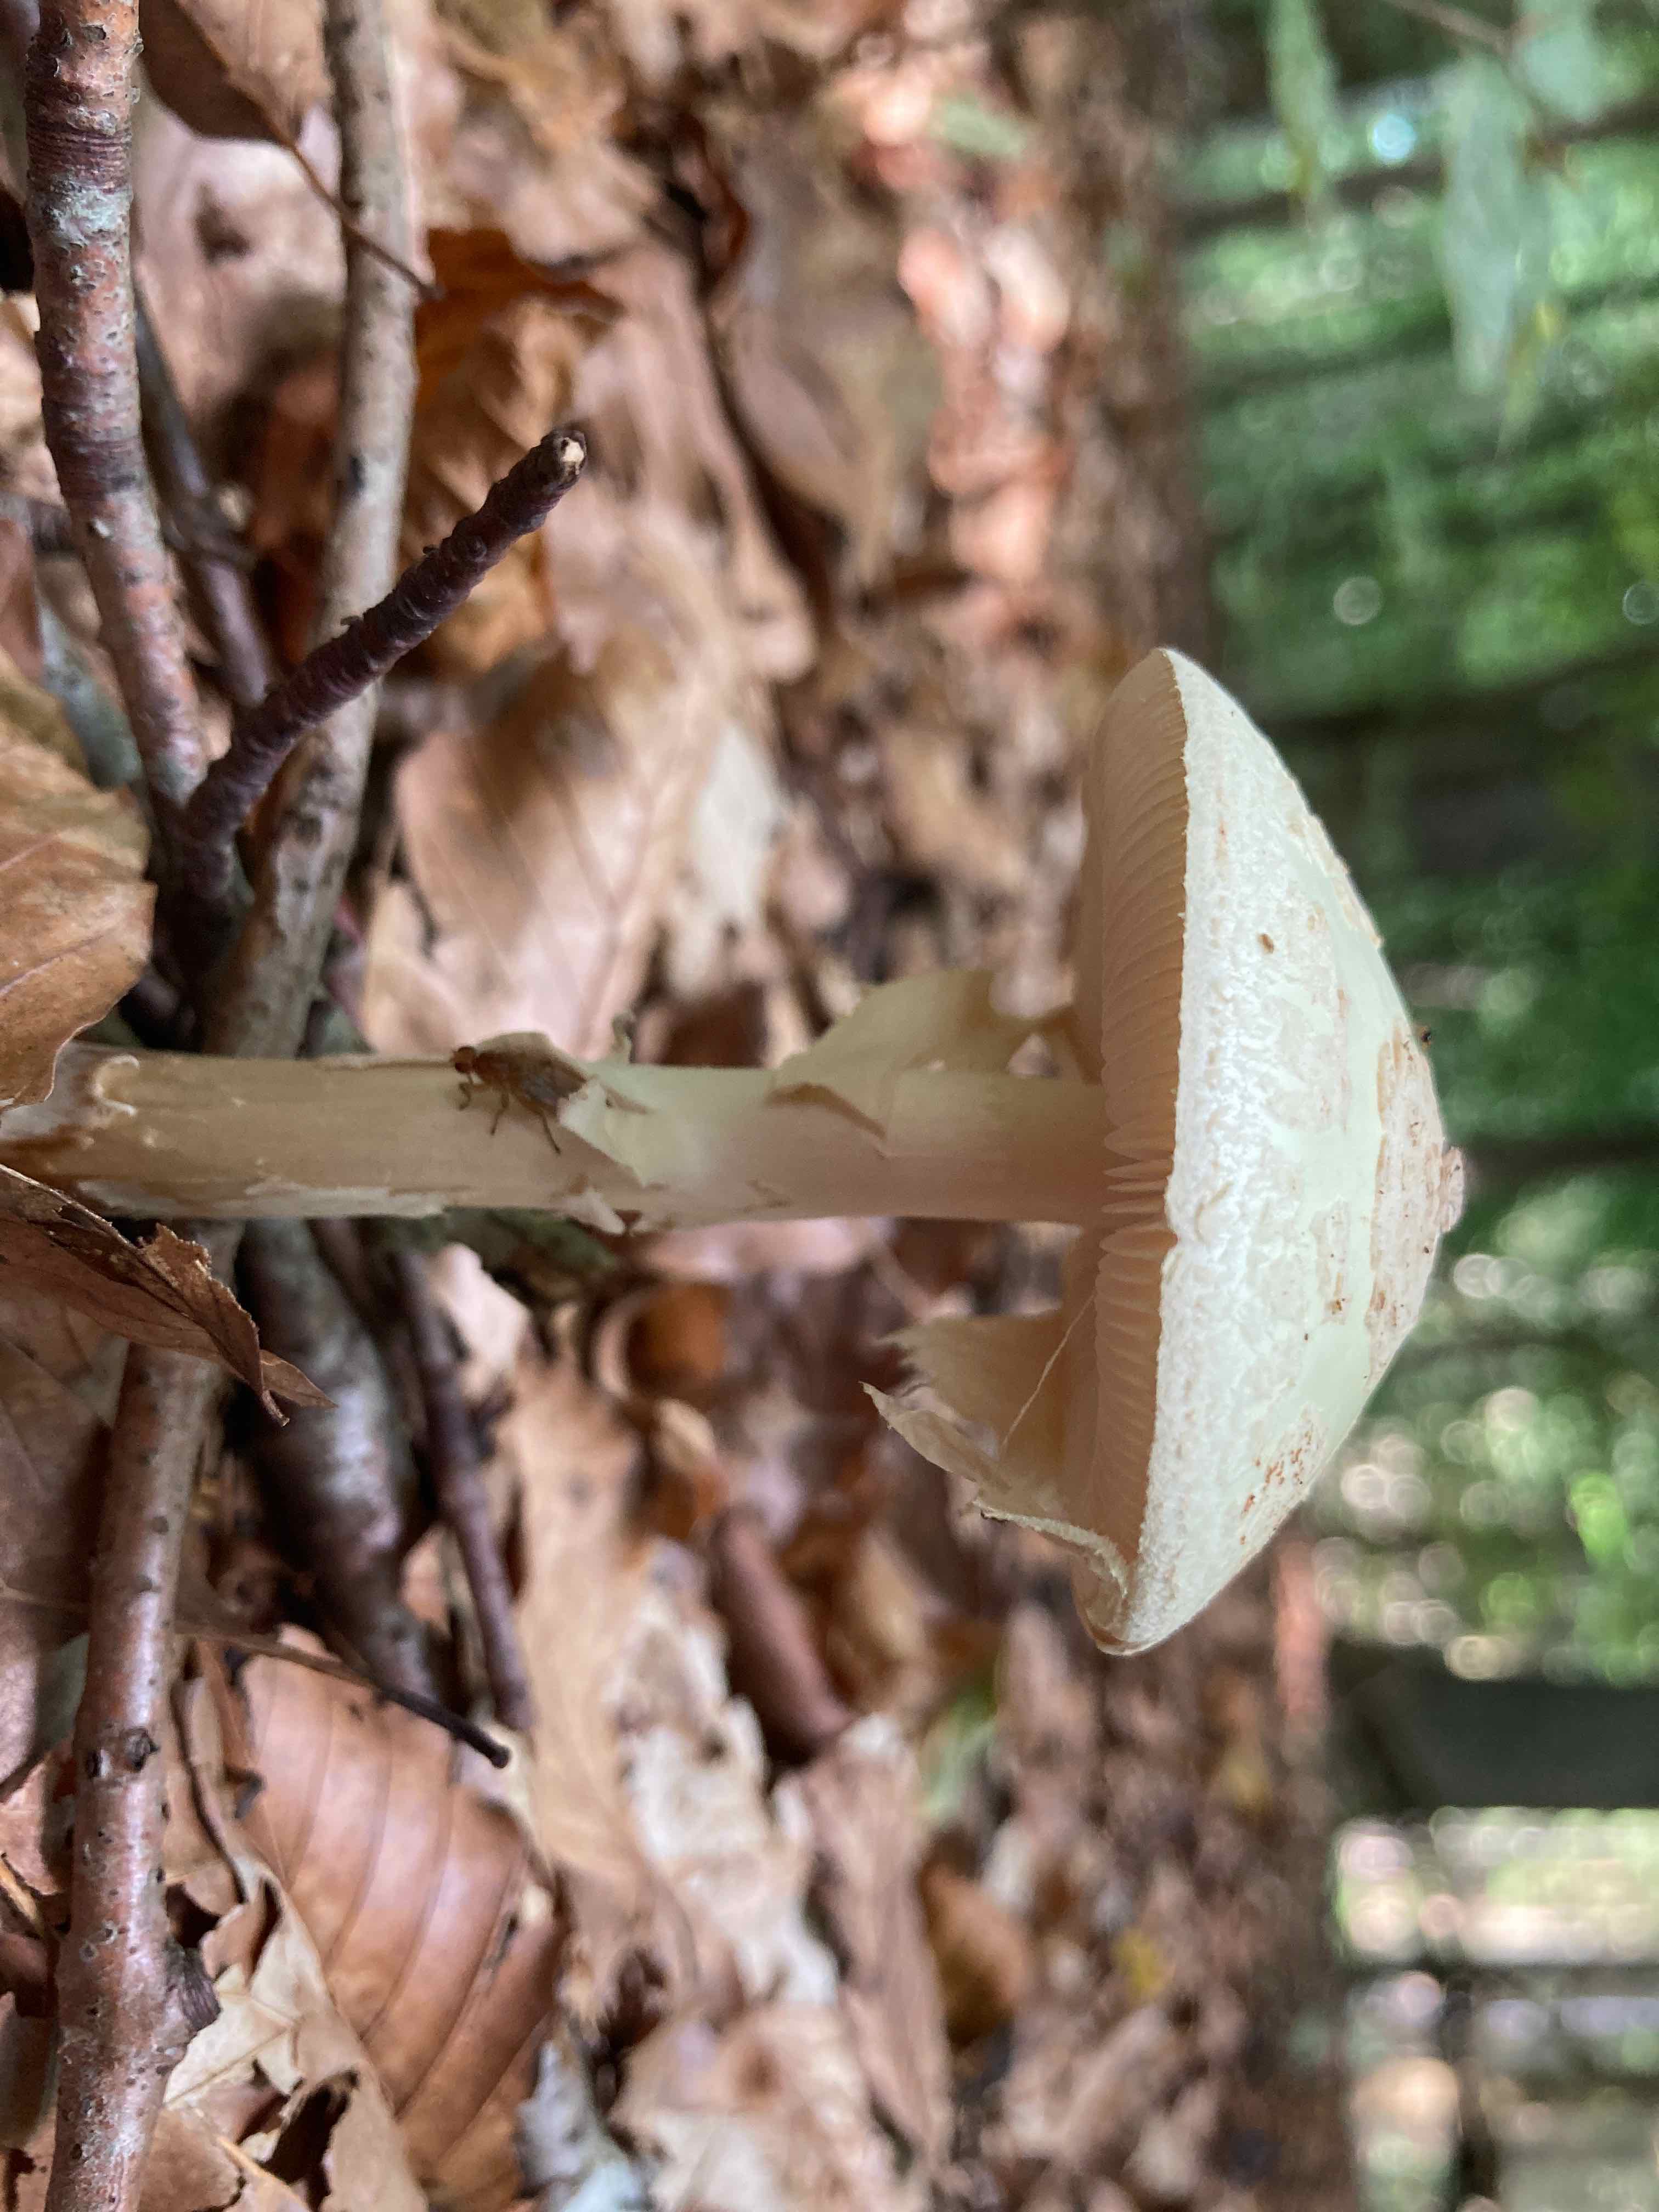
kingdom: Fungi
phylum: Basidiomycota
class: Agaricomycetes
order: Agaricales
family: Amanitaceae
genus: Amanita
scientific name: Amanita citrina
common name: kugleknoldet fluesvamp
